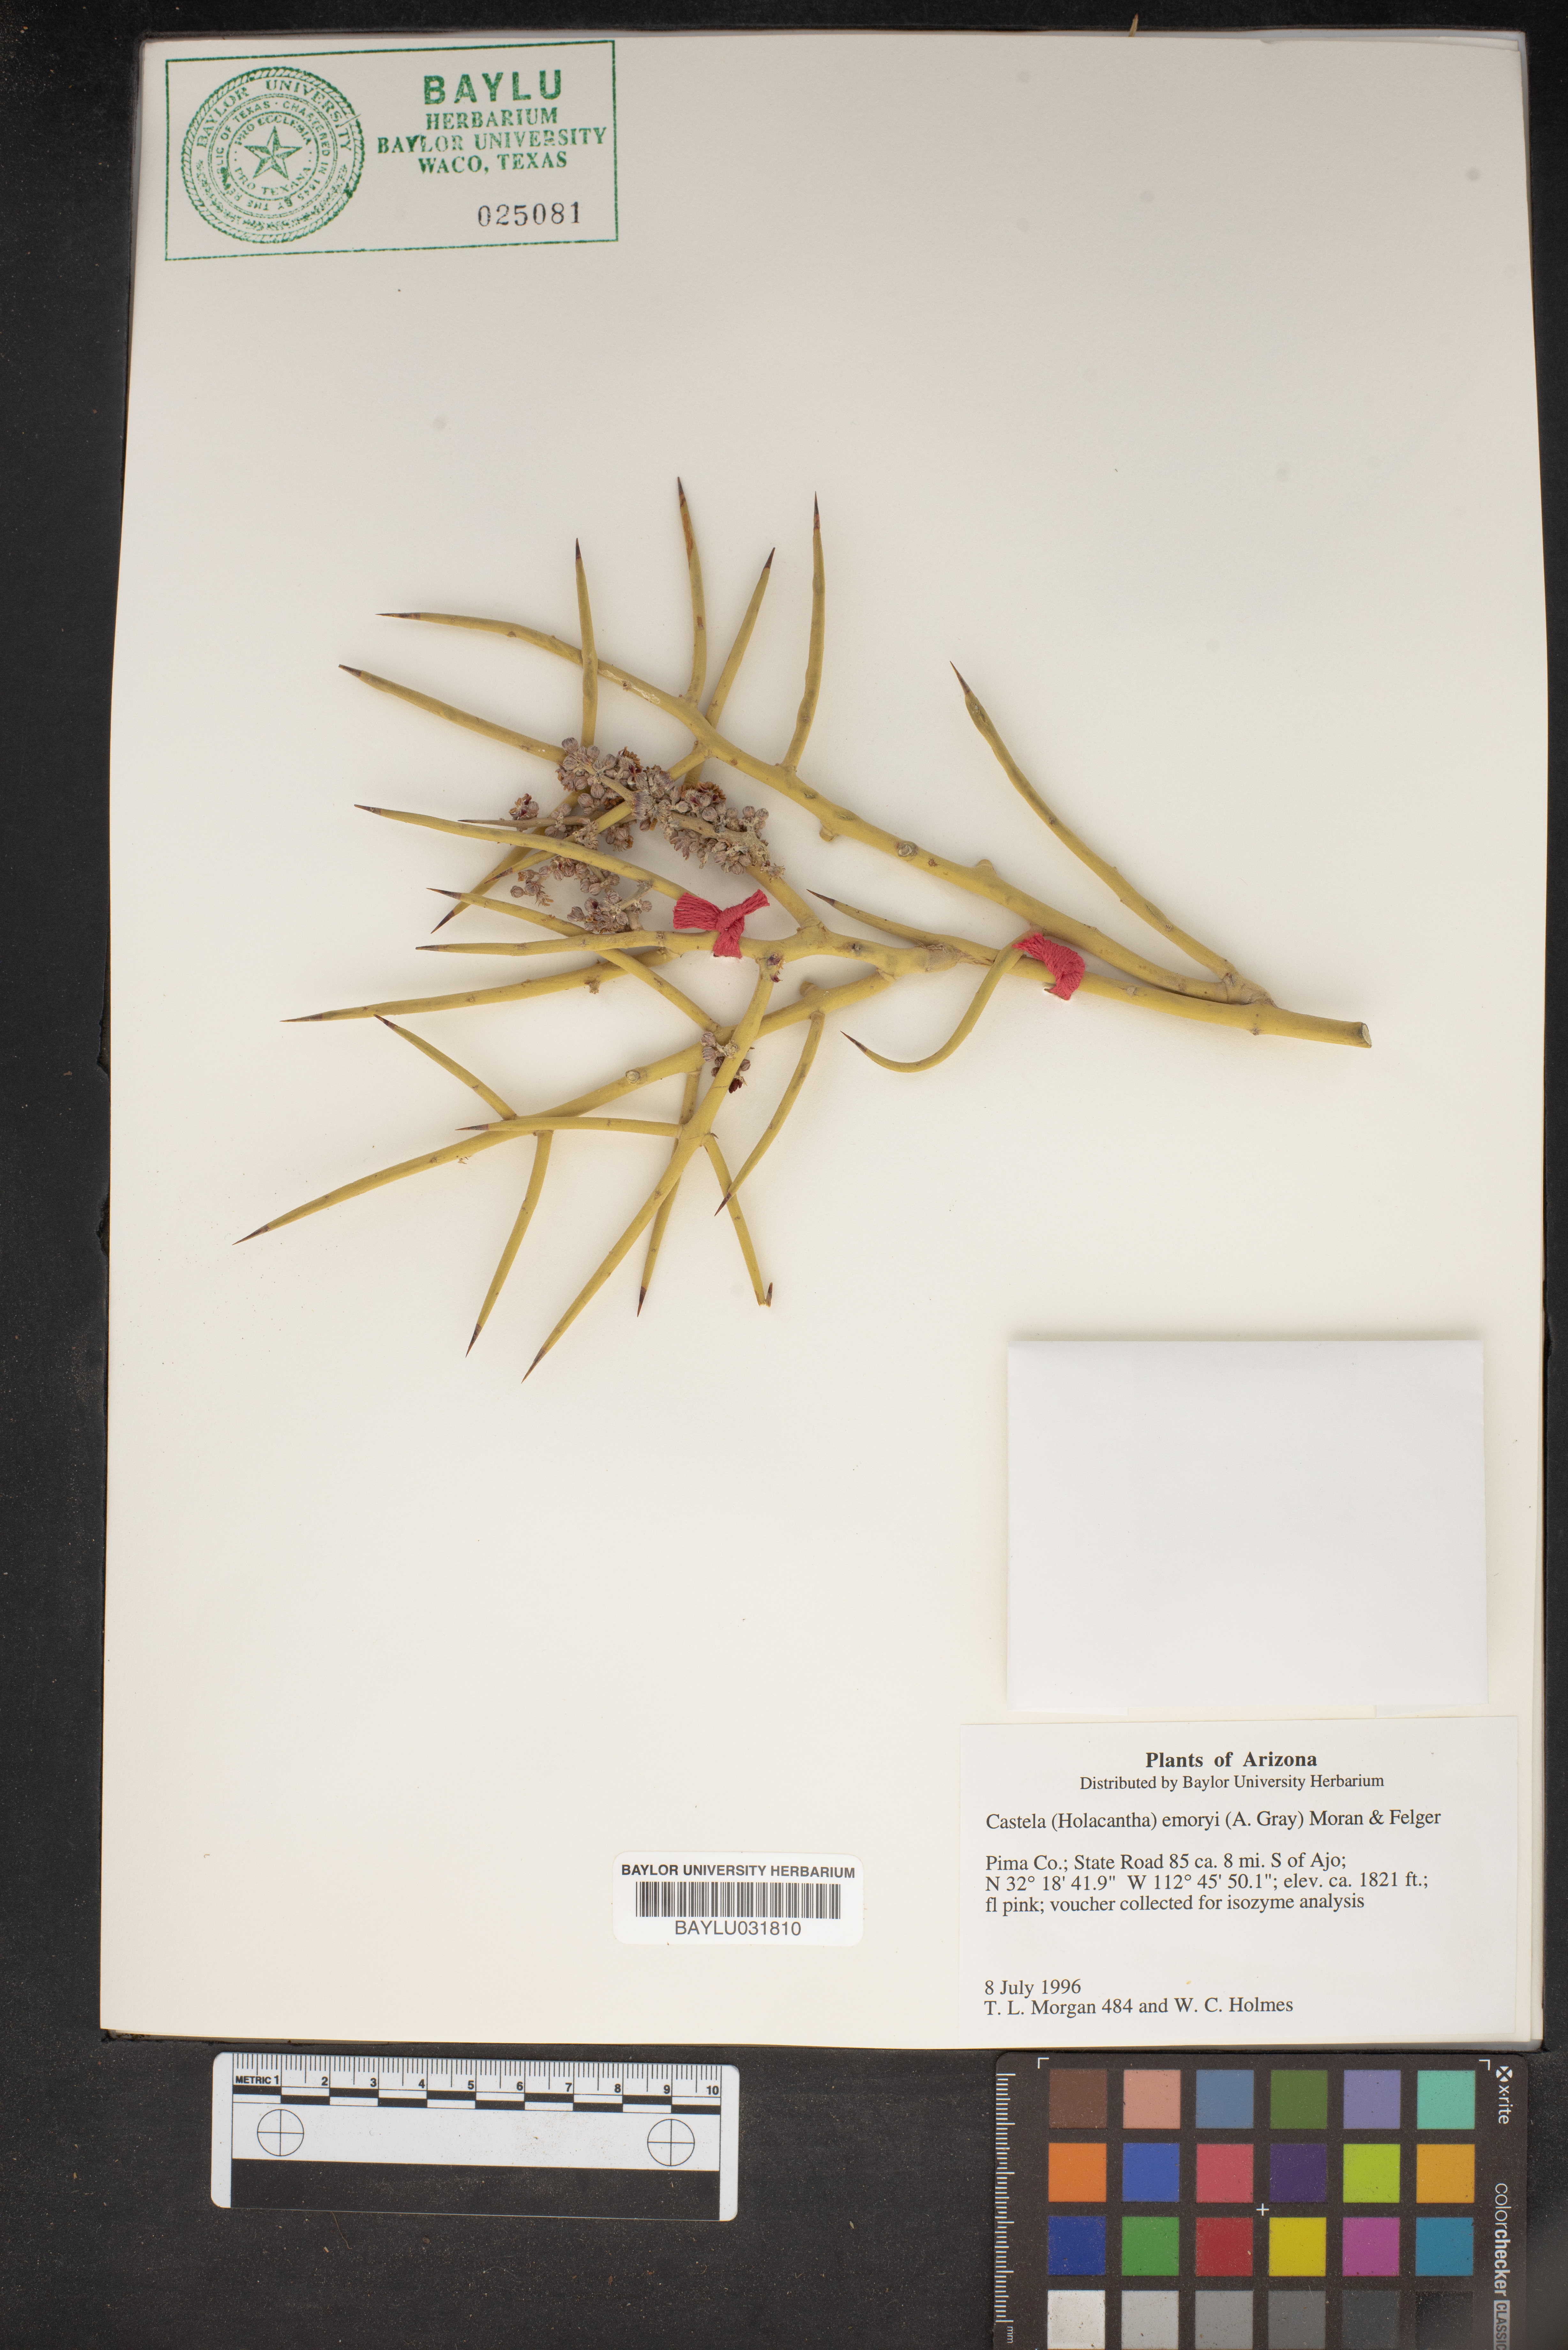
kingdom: Plantae
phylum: Tracheophyta
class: Magnoliopsida
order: Sapindales
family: Simaroubaceae
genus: Holacantha
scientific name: Holacantha emoryi
